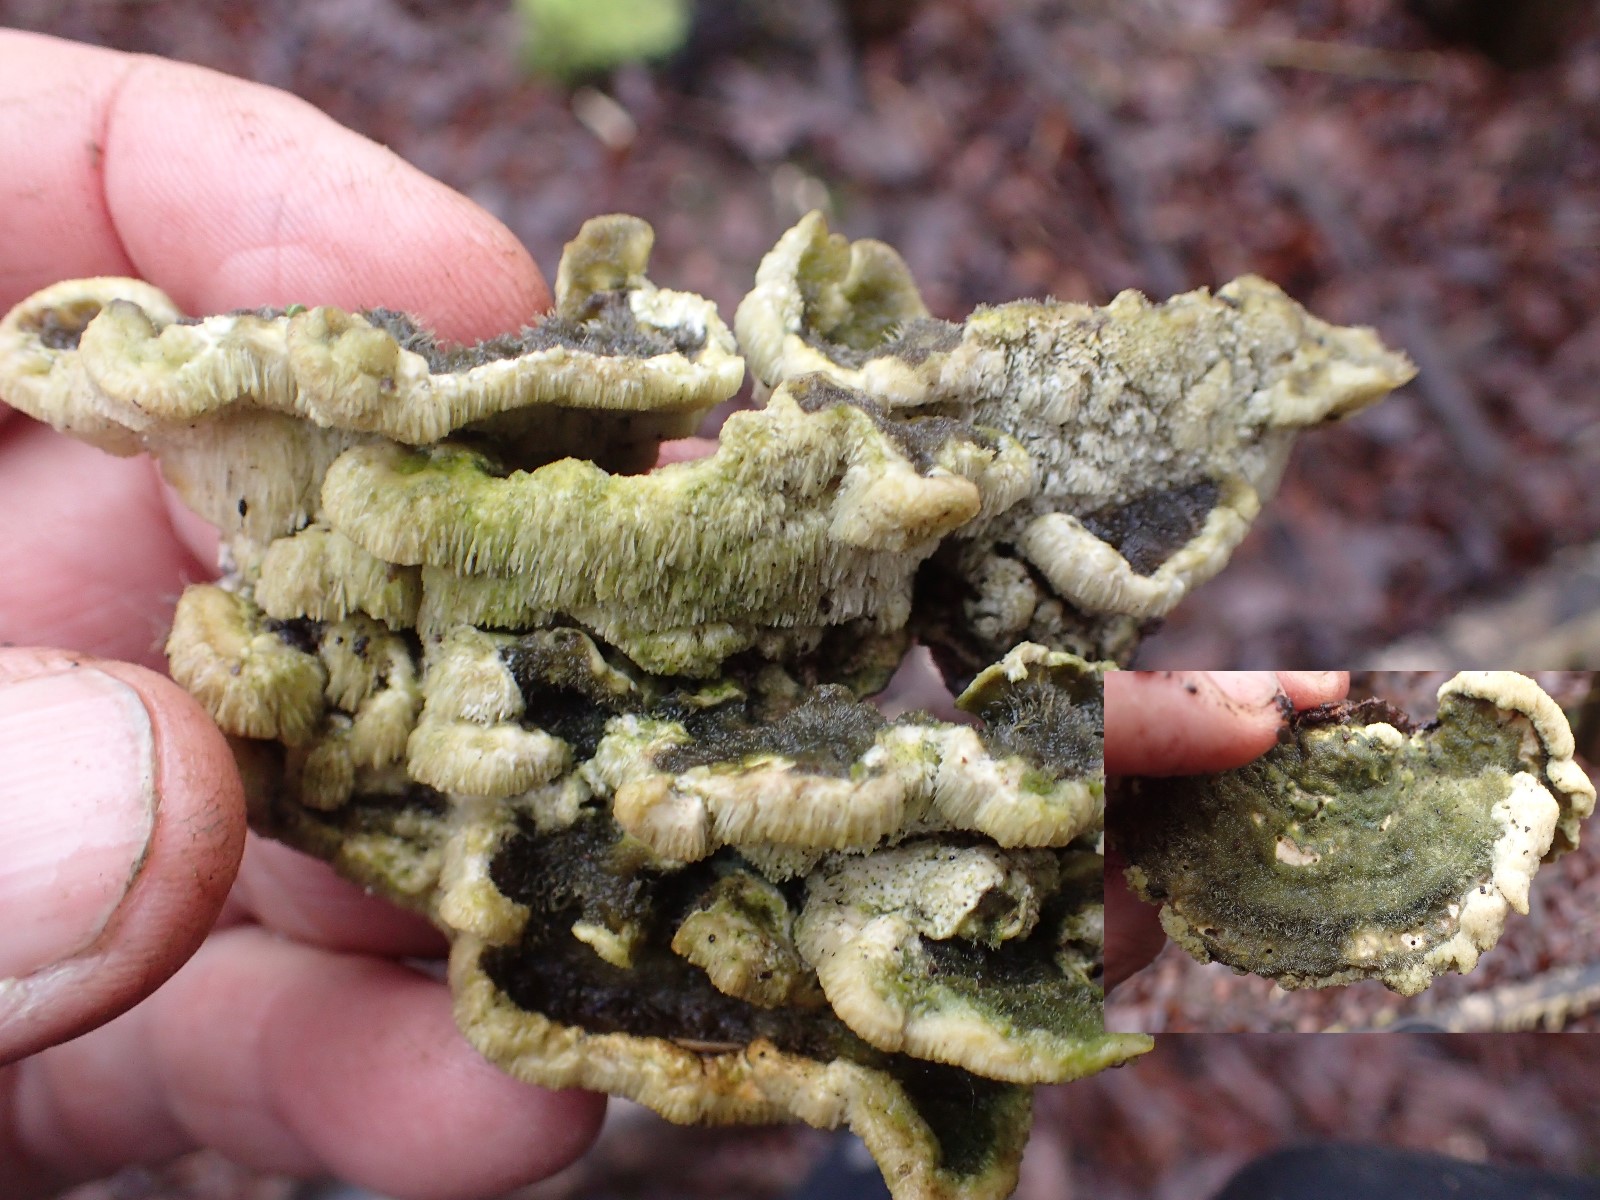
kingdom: Fungi
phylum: Basidiomycota
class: Agaricomycetes
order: Polyporales
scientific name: Polyporales
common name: poresvampordenen
